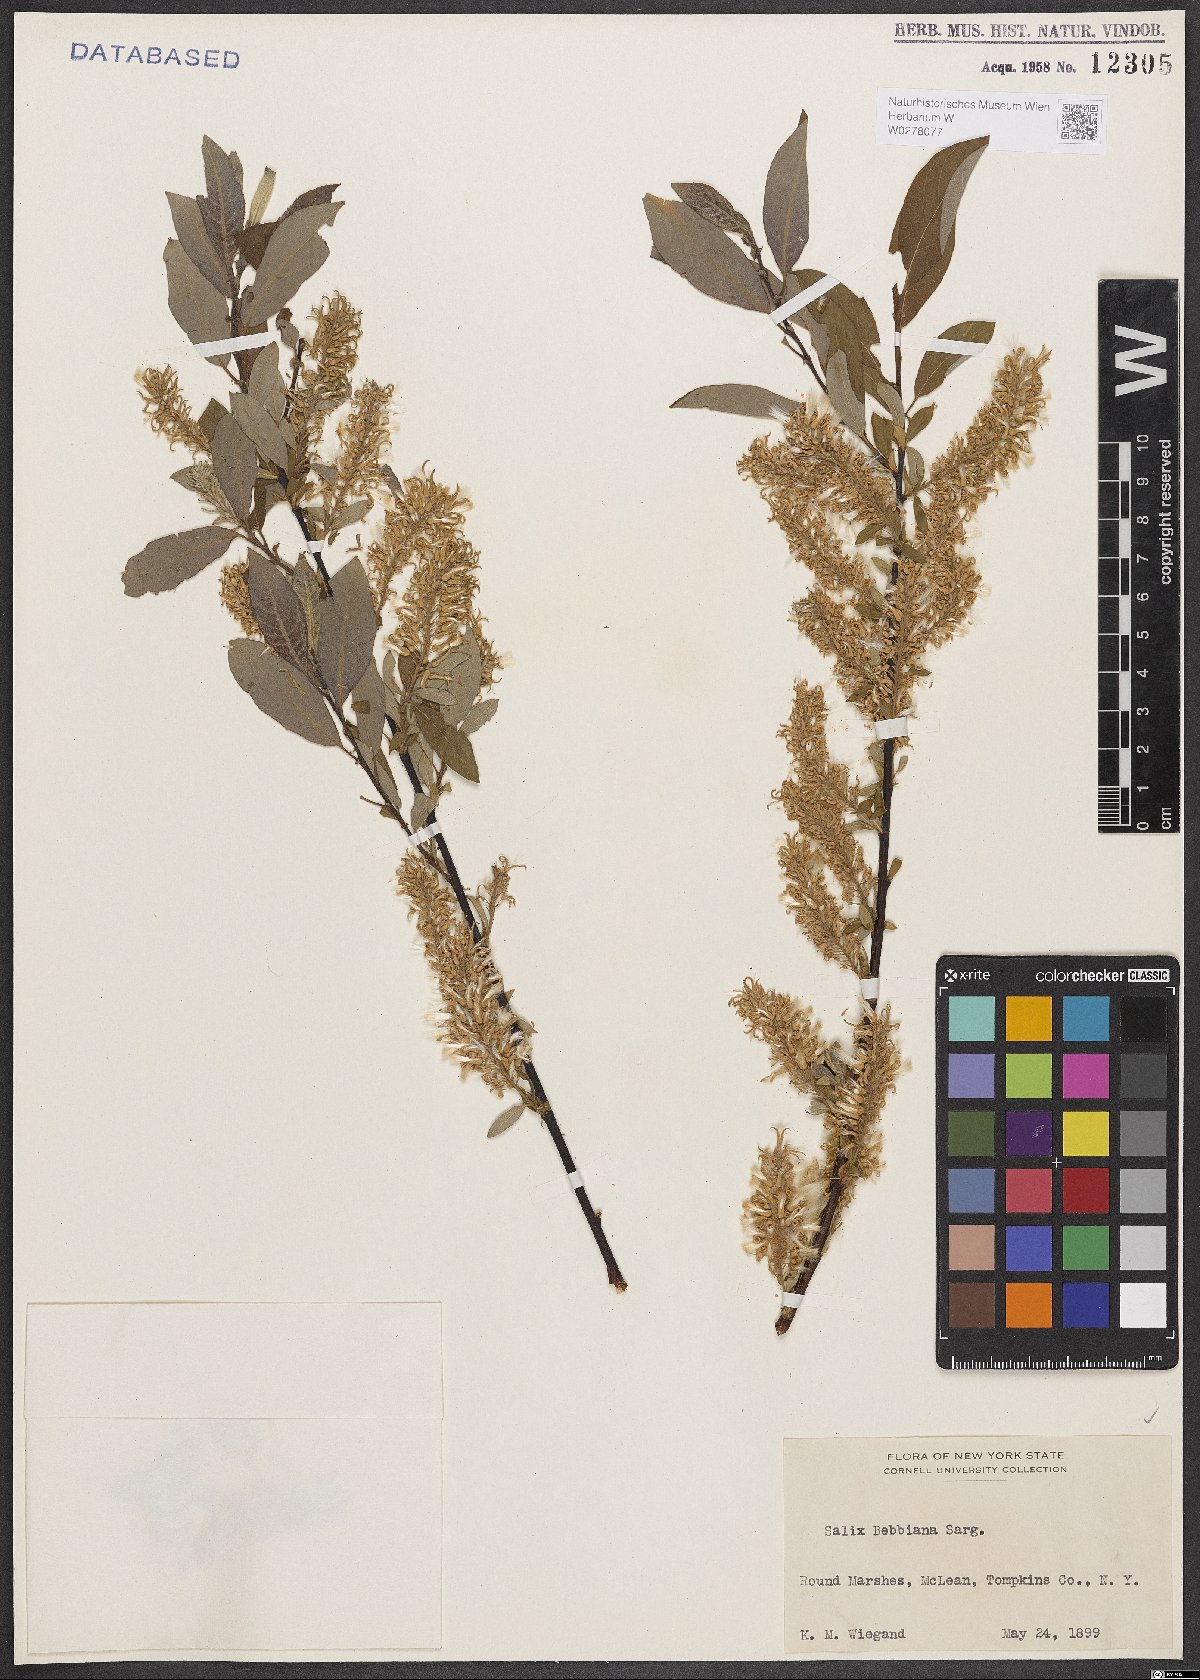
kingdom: Plantae
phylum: Tracheophyta
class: Magnoliopsida
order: Malpighiales
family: Salicaceae
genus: Salix
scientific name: Salix bebbiana
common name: Bebb's willow
